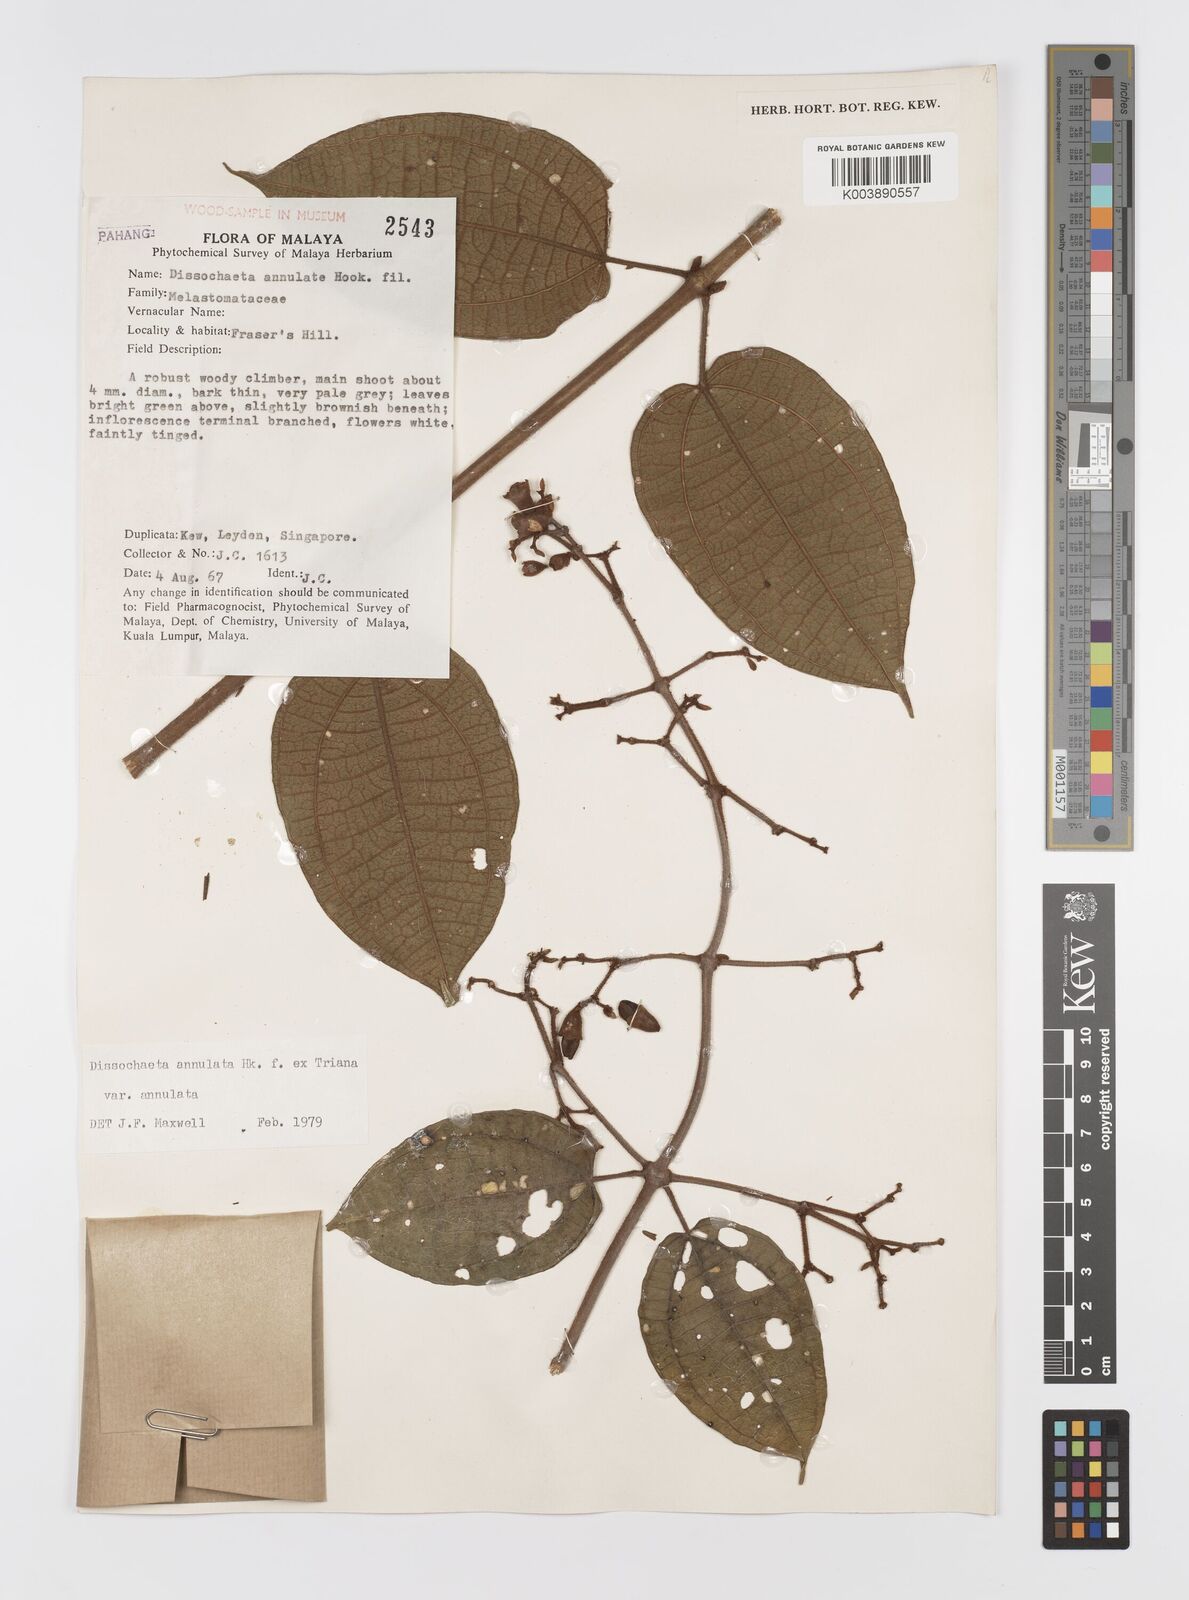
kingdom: Plantae
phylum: Tracheophyta
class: Magnoliopsida
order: Myrtales
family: Melastomataceae
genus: Dissochaeta
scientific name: Dissochaeta annulata
